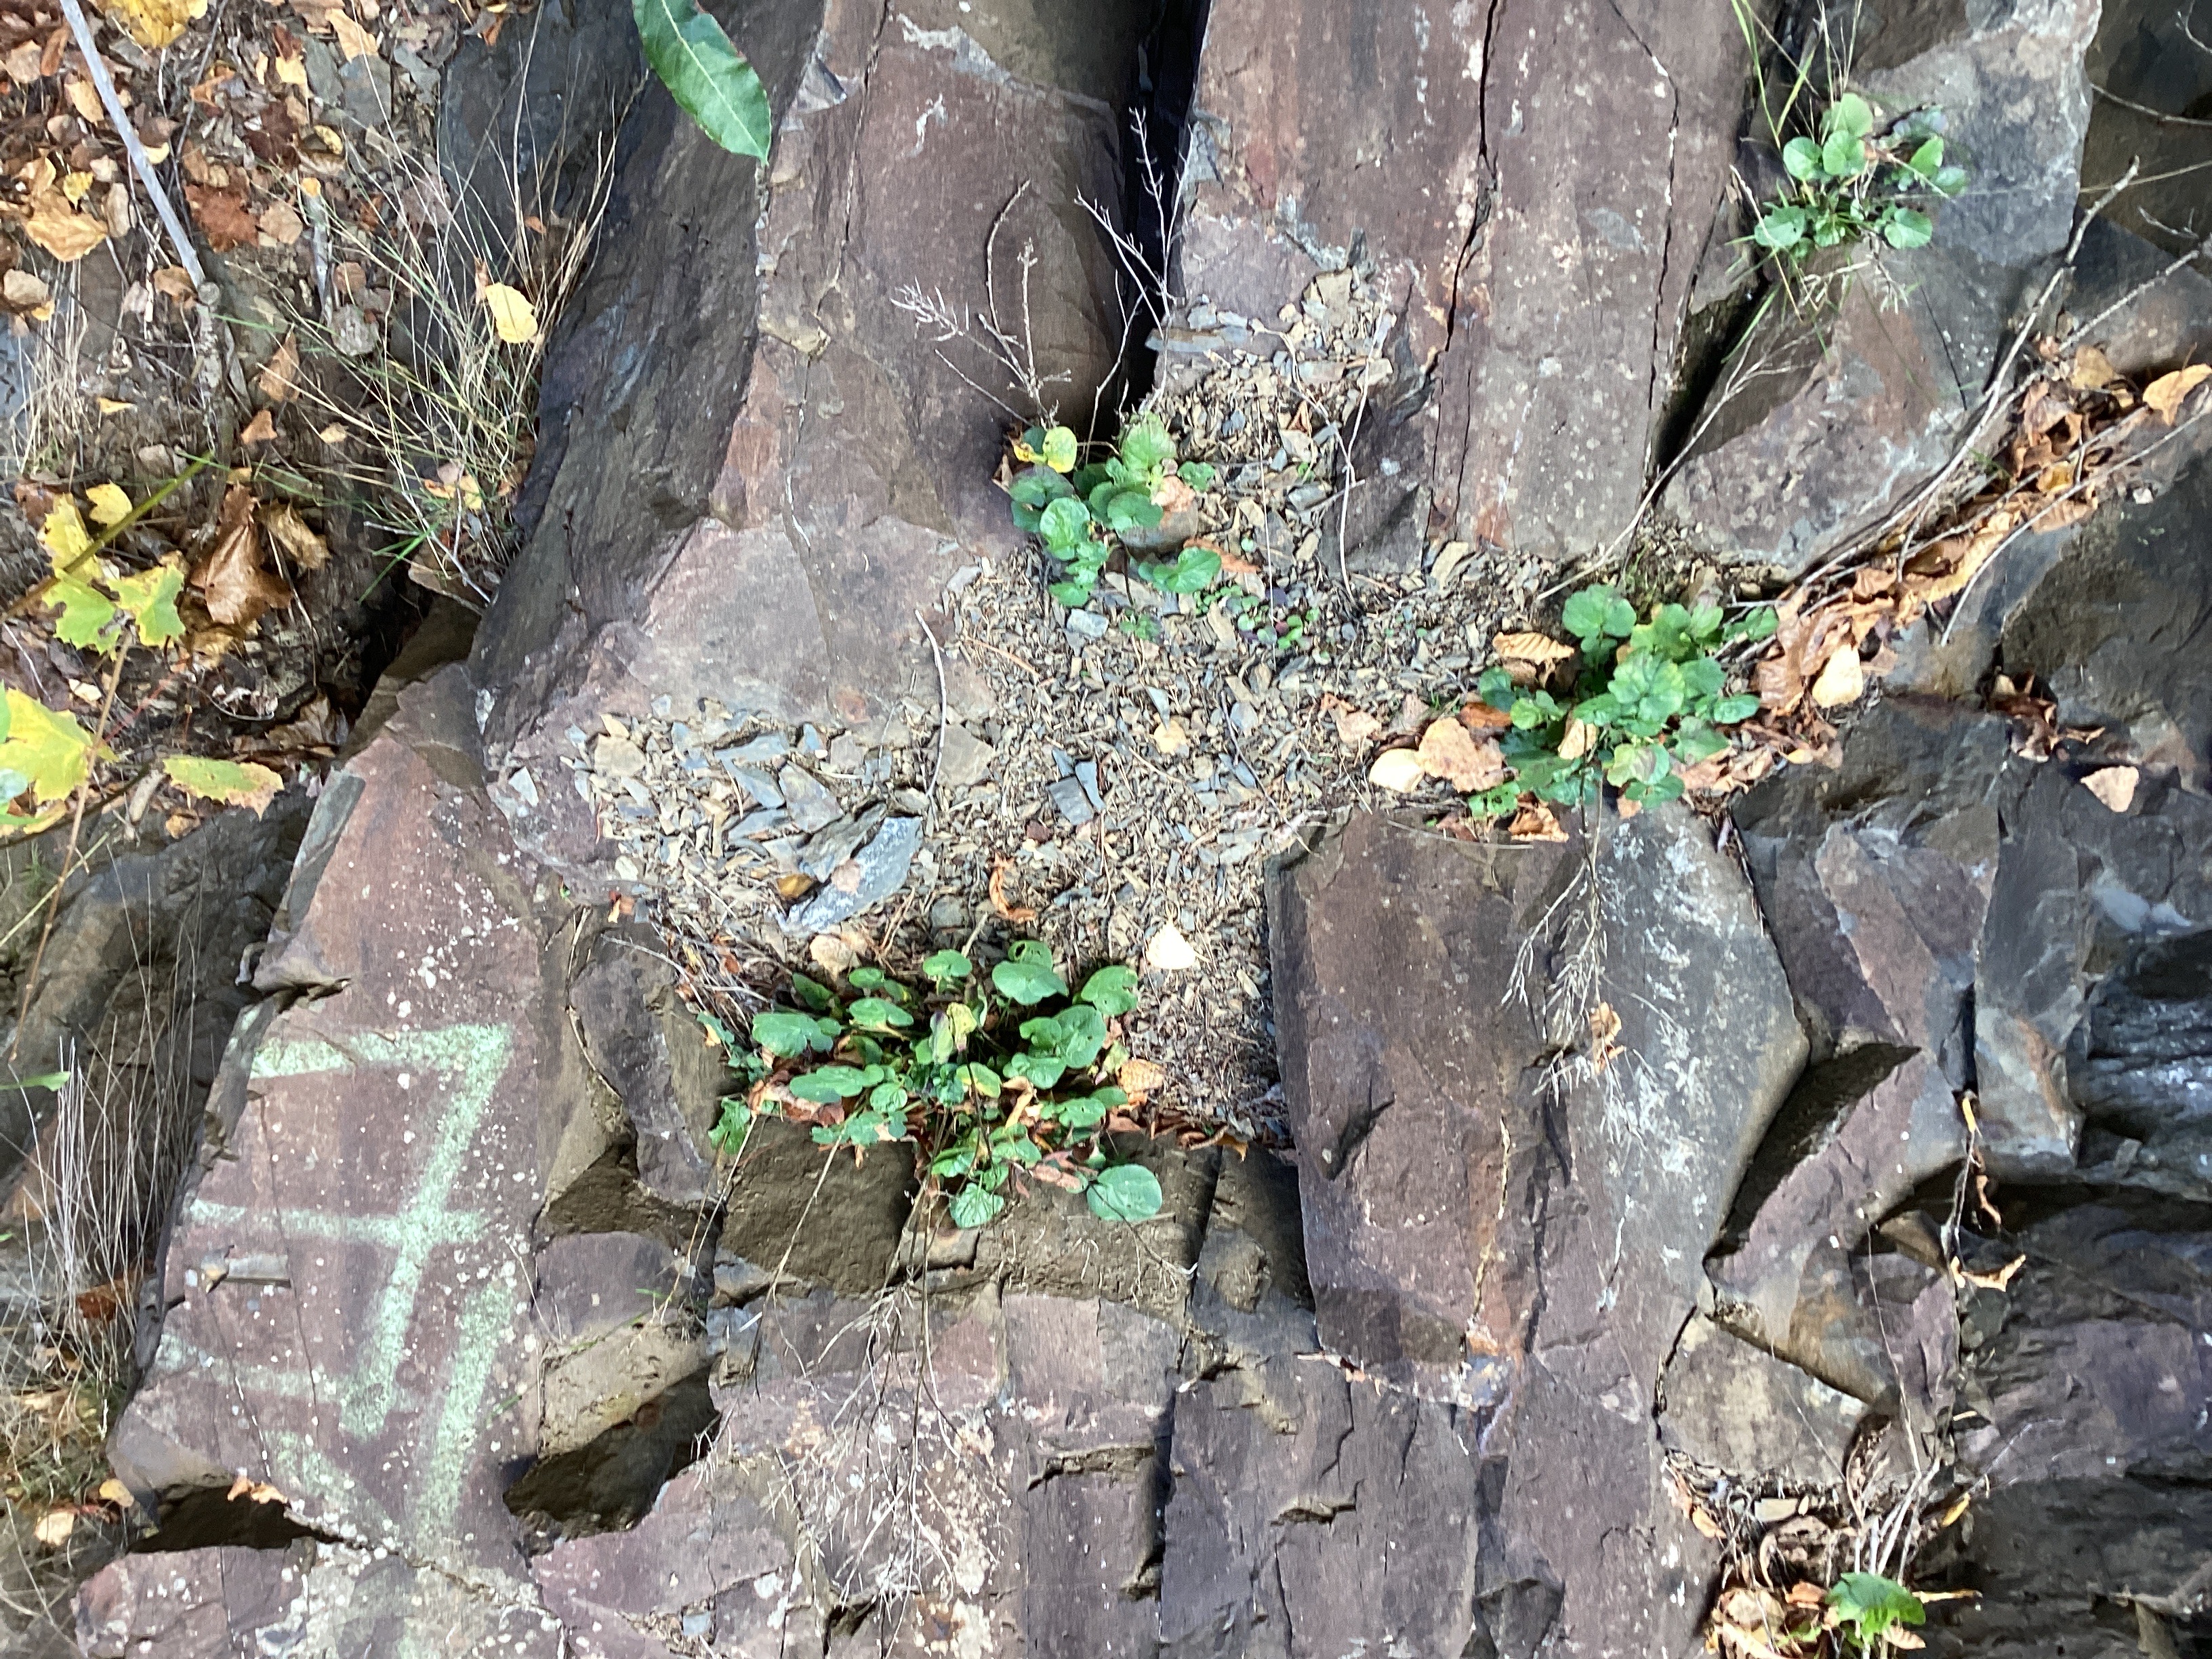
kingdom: Plantae
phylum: Tracheophyta
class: Magnoliopsida
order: Brassicales
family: Brassicaceae
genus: Barbarea
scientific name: Barbarea vulgaris
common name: vinterkarse
